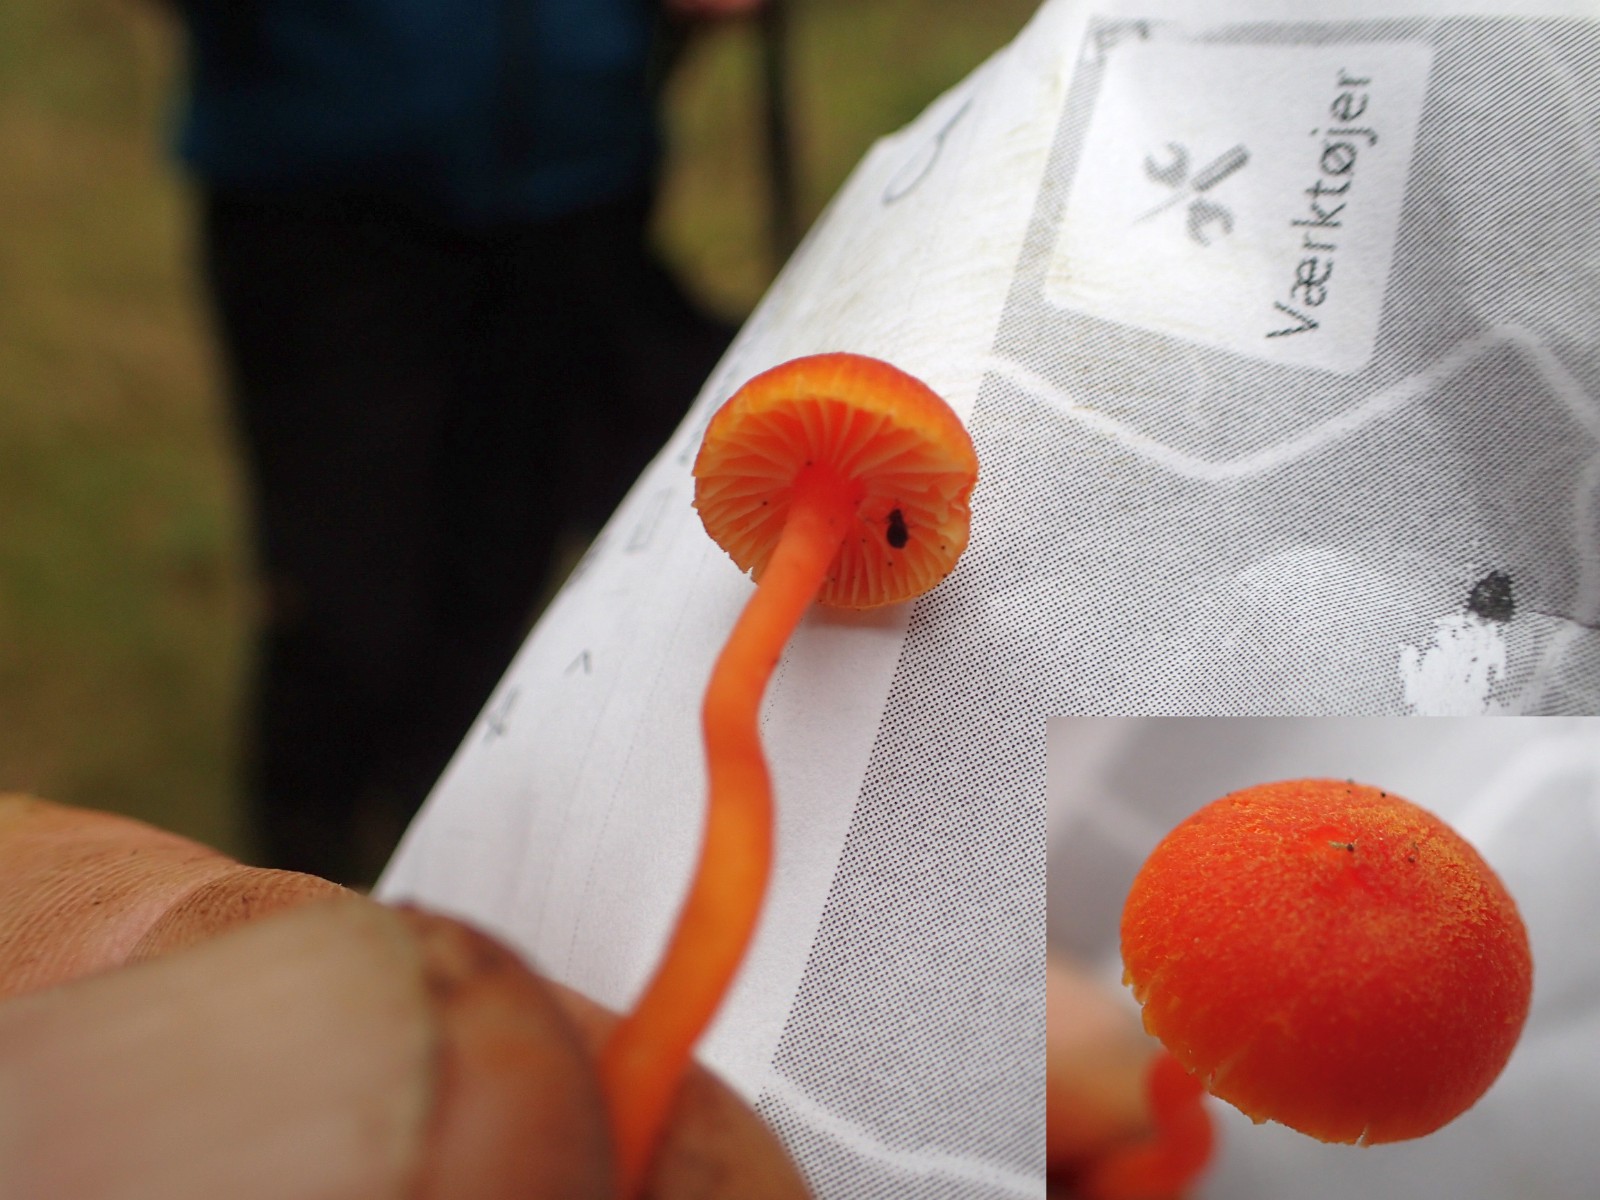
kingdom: Fungi
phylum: Basidiomycota
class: Agaricomycetes
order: Agaricales
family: Hygrophoraceae
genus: Hygrocybe
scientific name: Hygrocybe miniata
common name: mønje-vokshat
